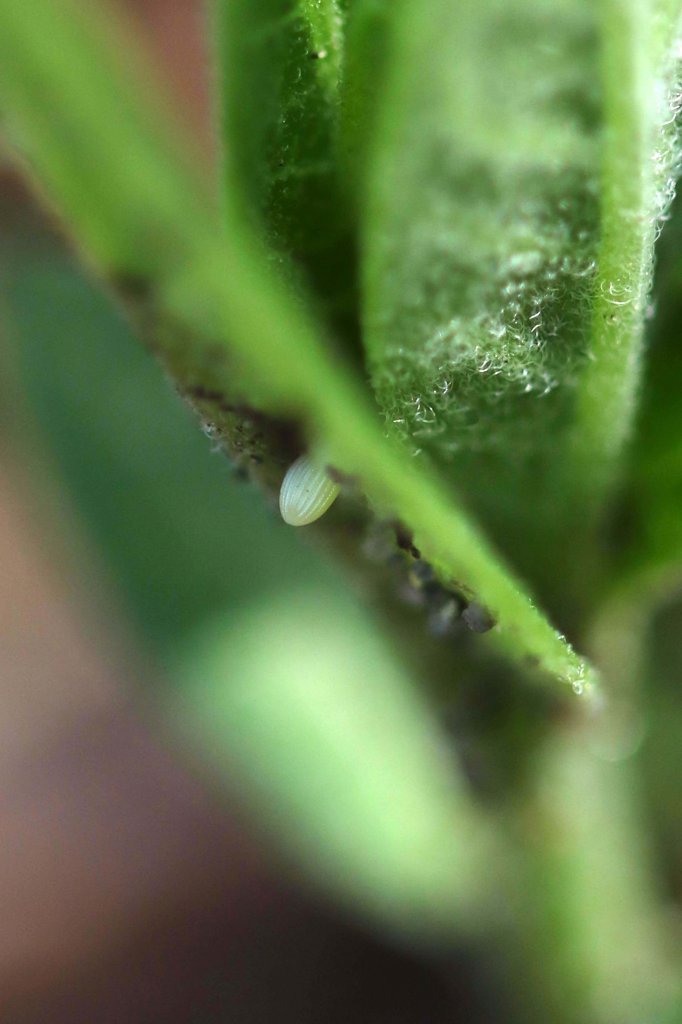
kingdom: Animalia
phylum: Arthropoda
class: Insecta
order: Lepidoptera
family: Nymphalidae
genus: Danaus
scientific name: Danaus plexippus
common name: Monarch
